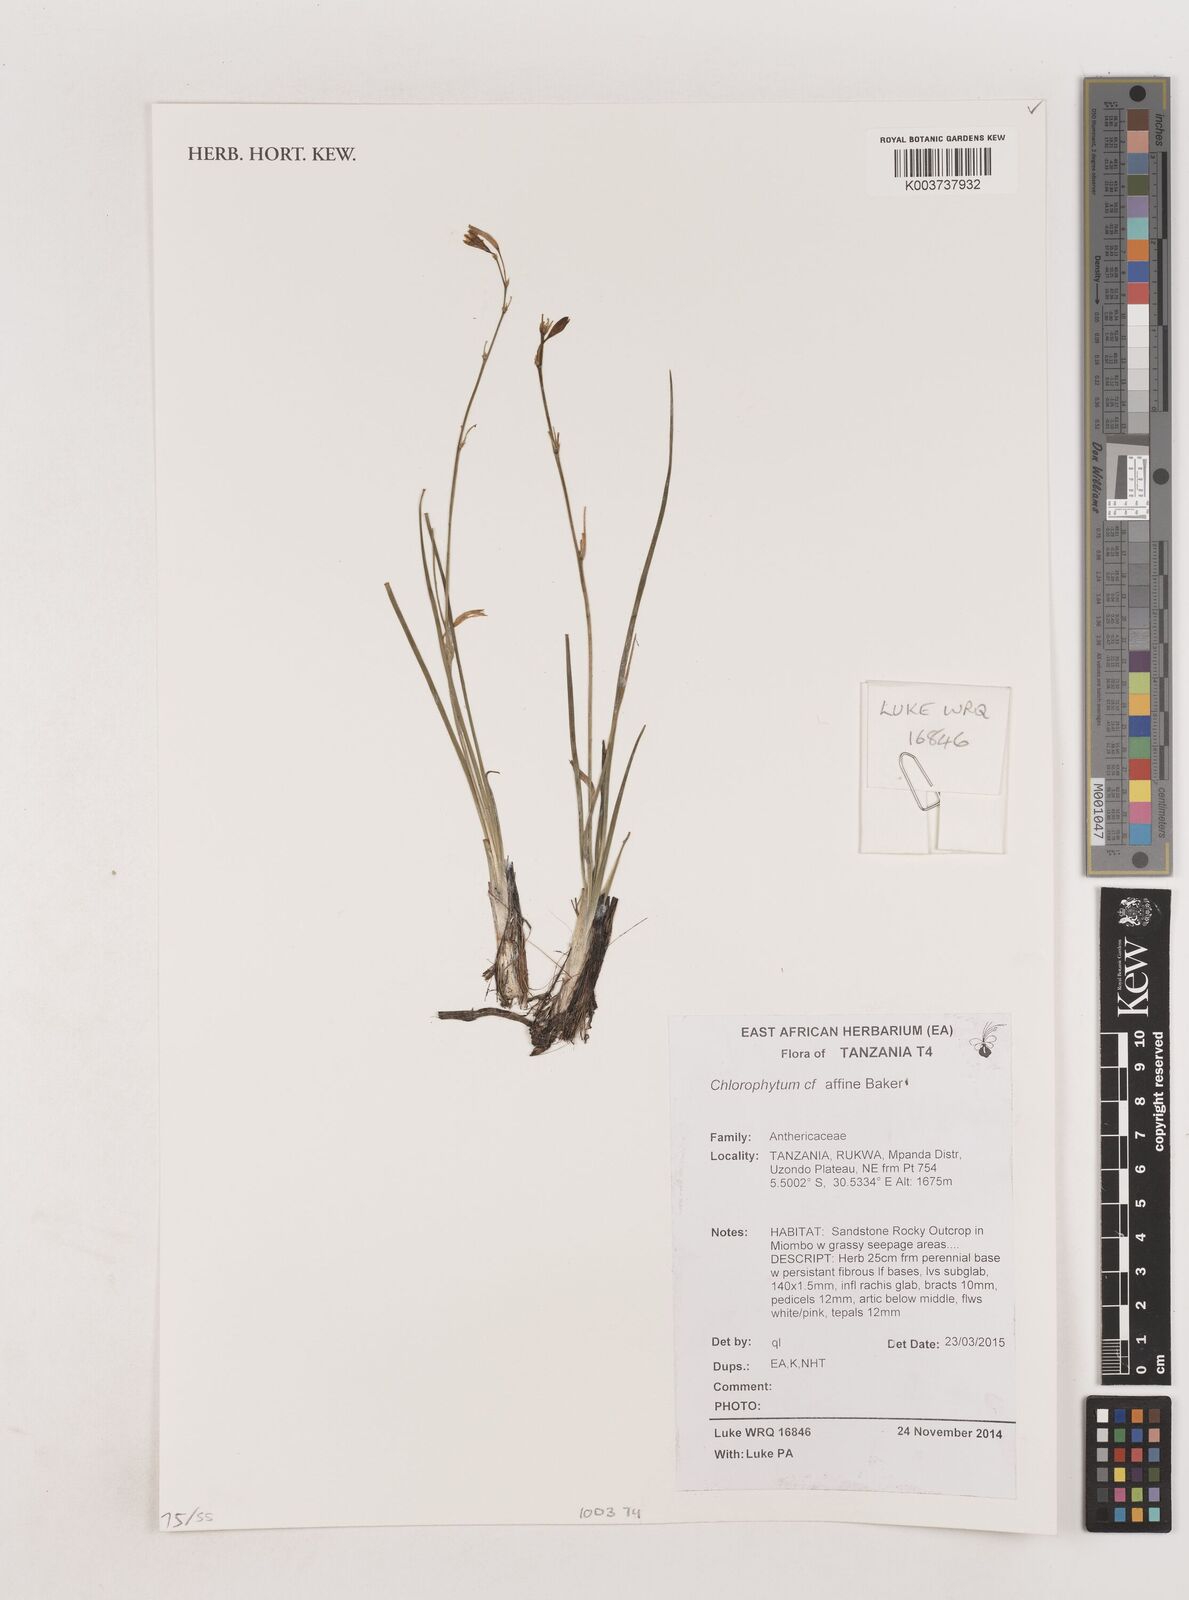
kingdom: Plantae
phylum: Tracheophyta
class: Liliopsida
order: Asparagales
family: Asparagaceae
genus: Chlorophytum
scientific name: Chlorophytum affine
